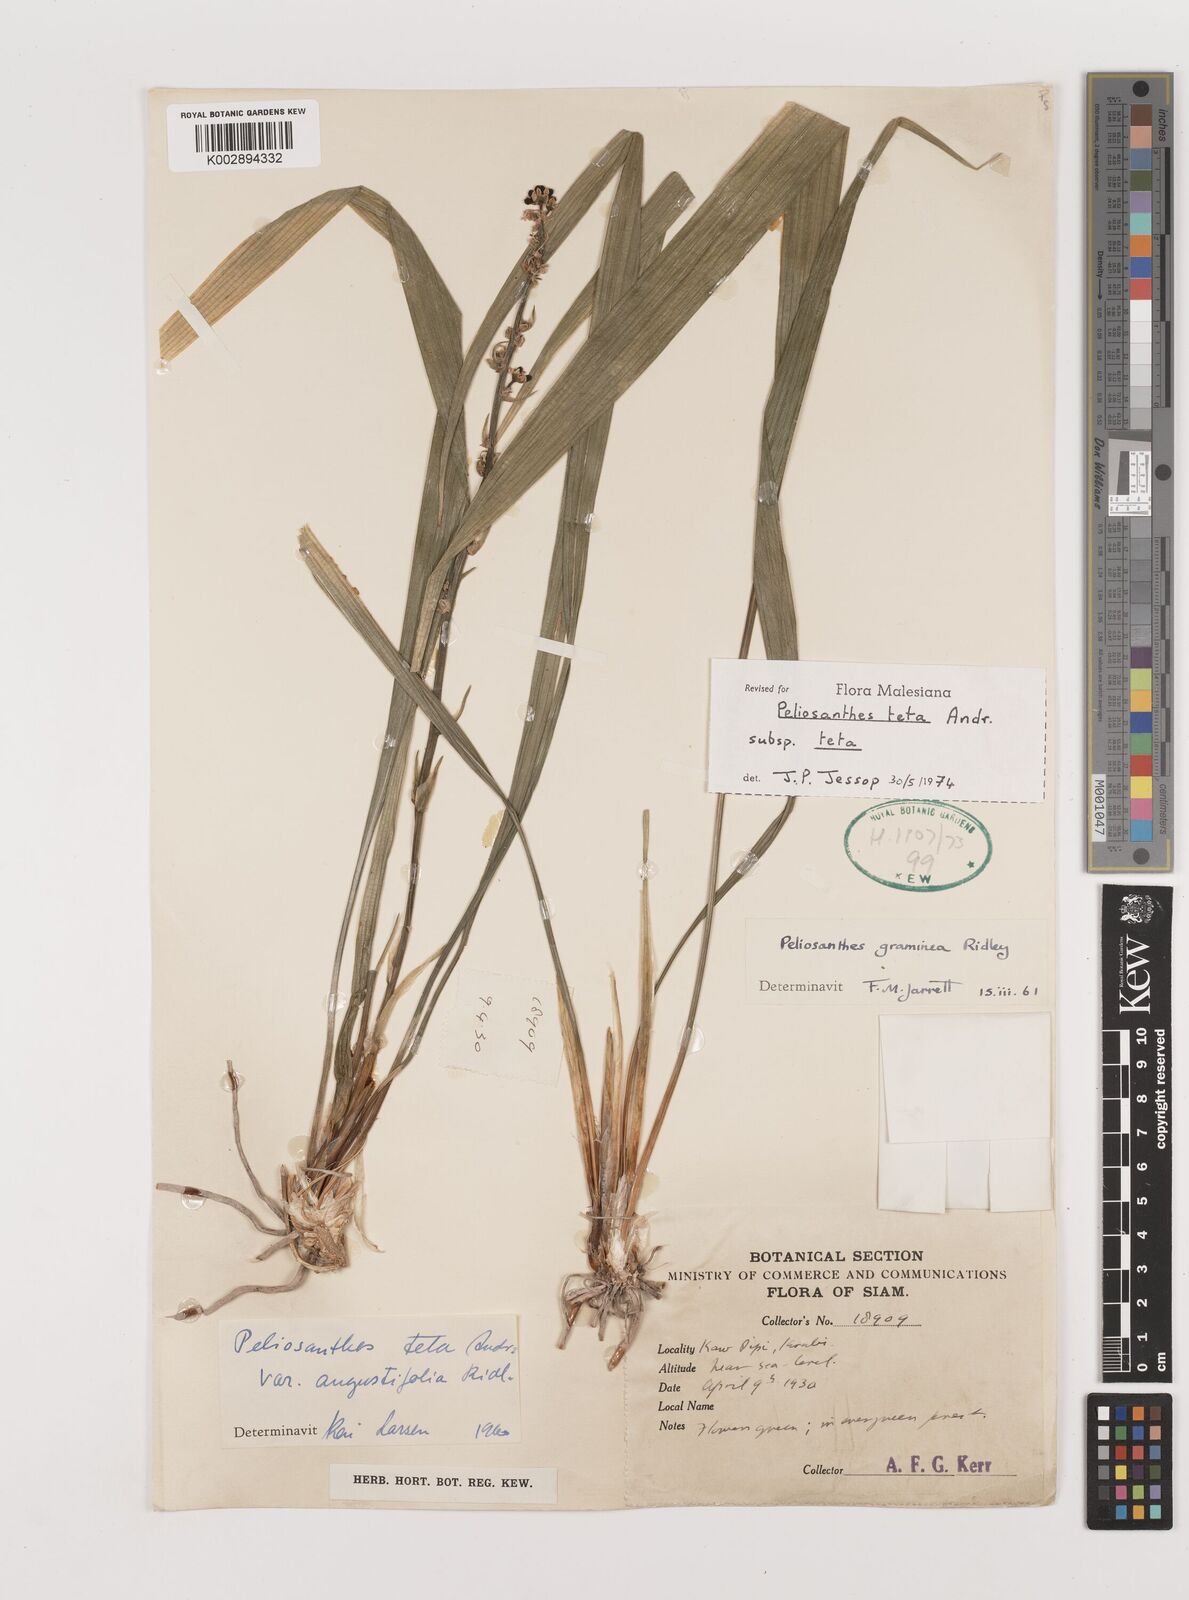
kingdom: Plantae
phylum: Tracheophyta
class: Liliopsida
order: Asparagales
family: Asparagaceae
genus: Peliosanthes
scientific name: Peliosanthes teta
